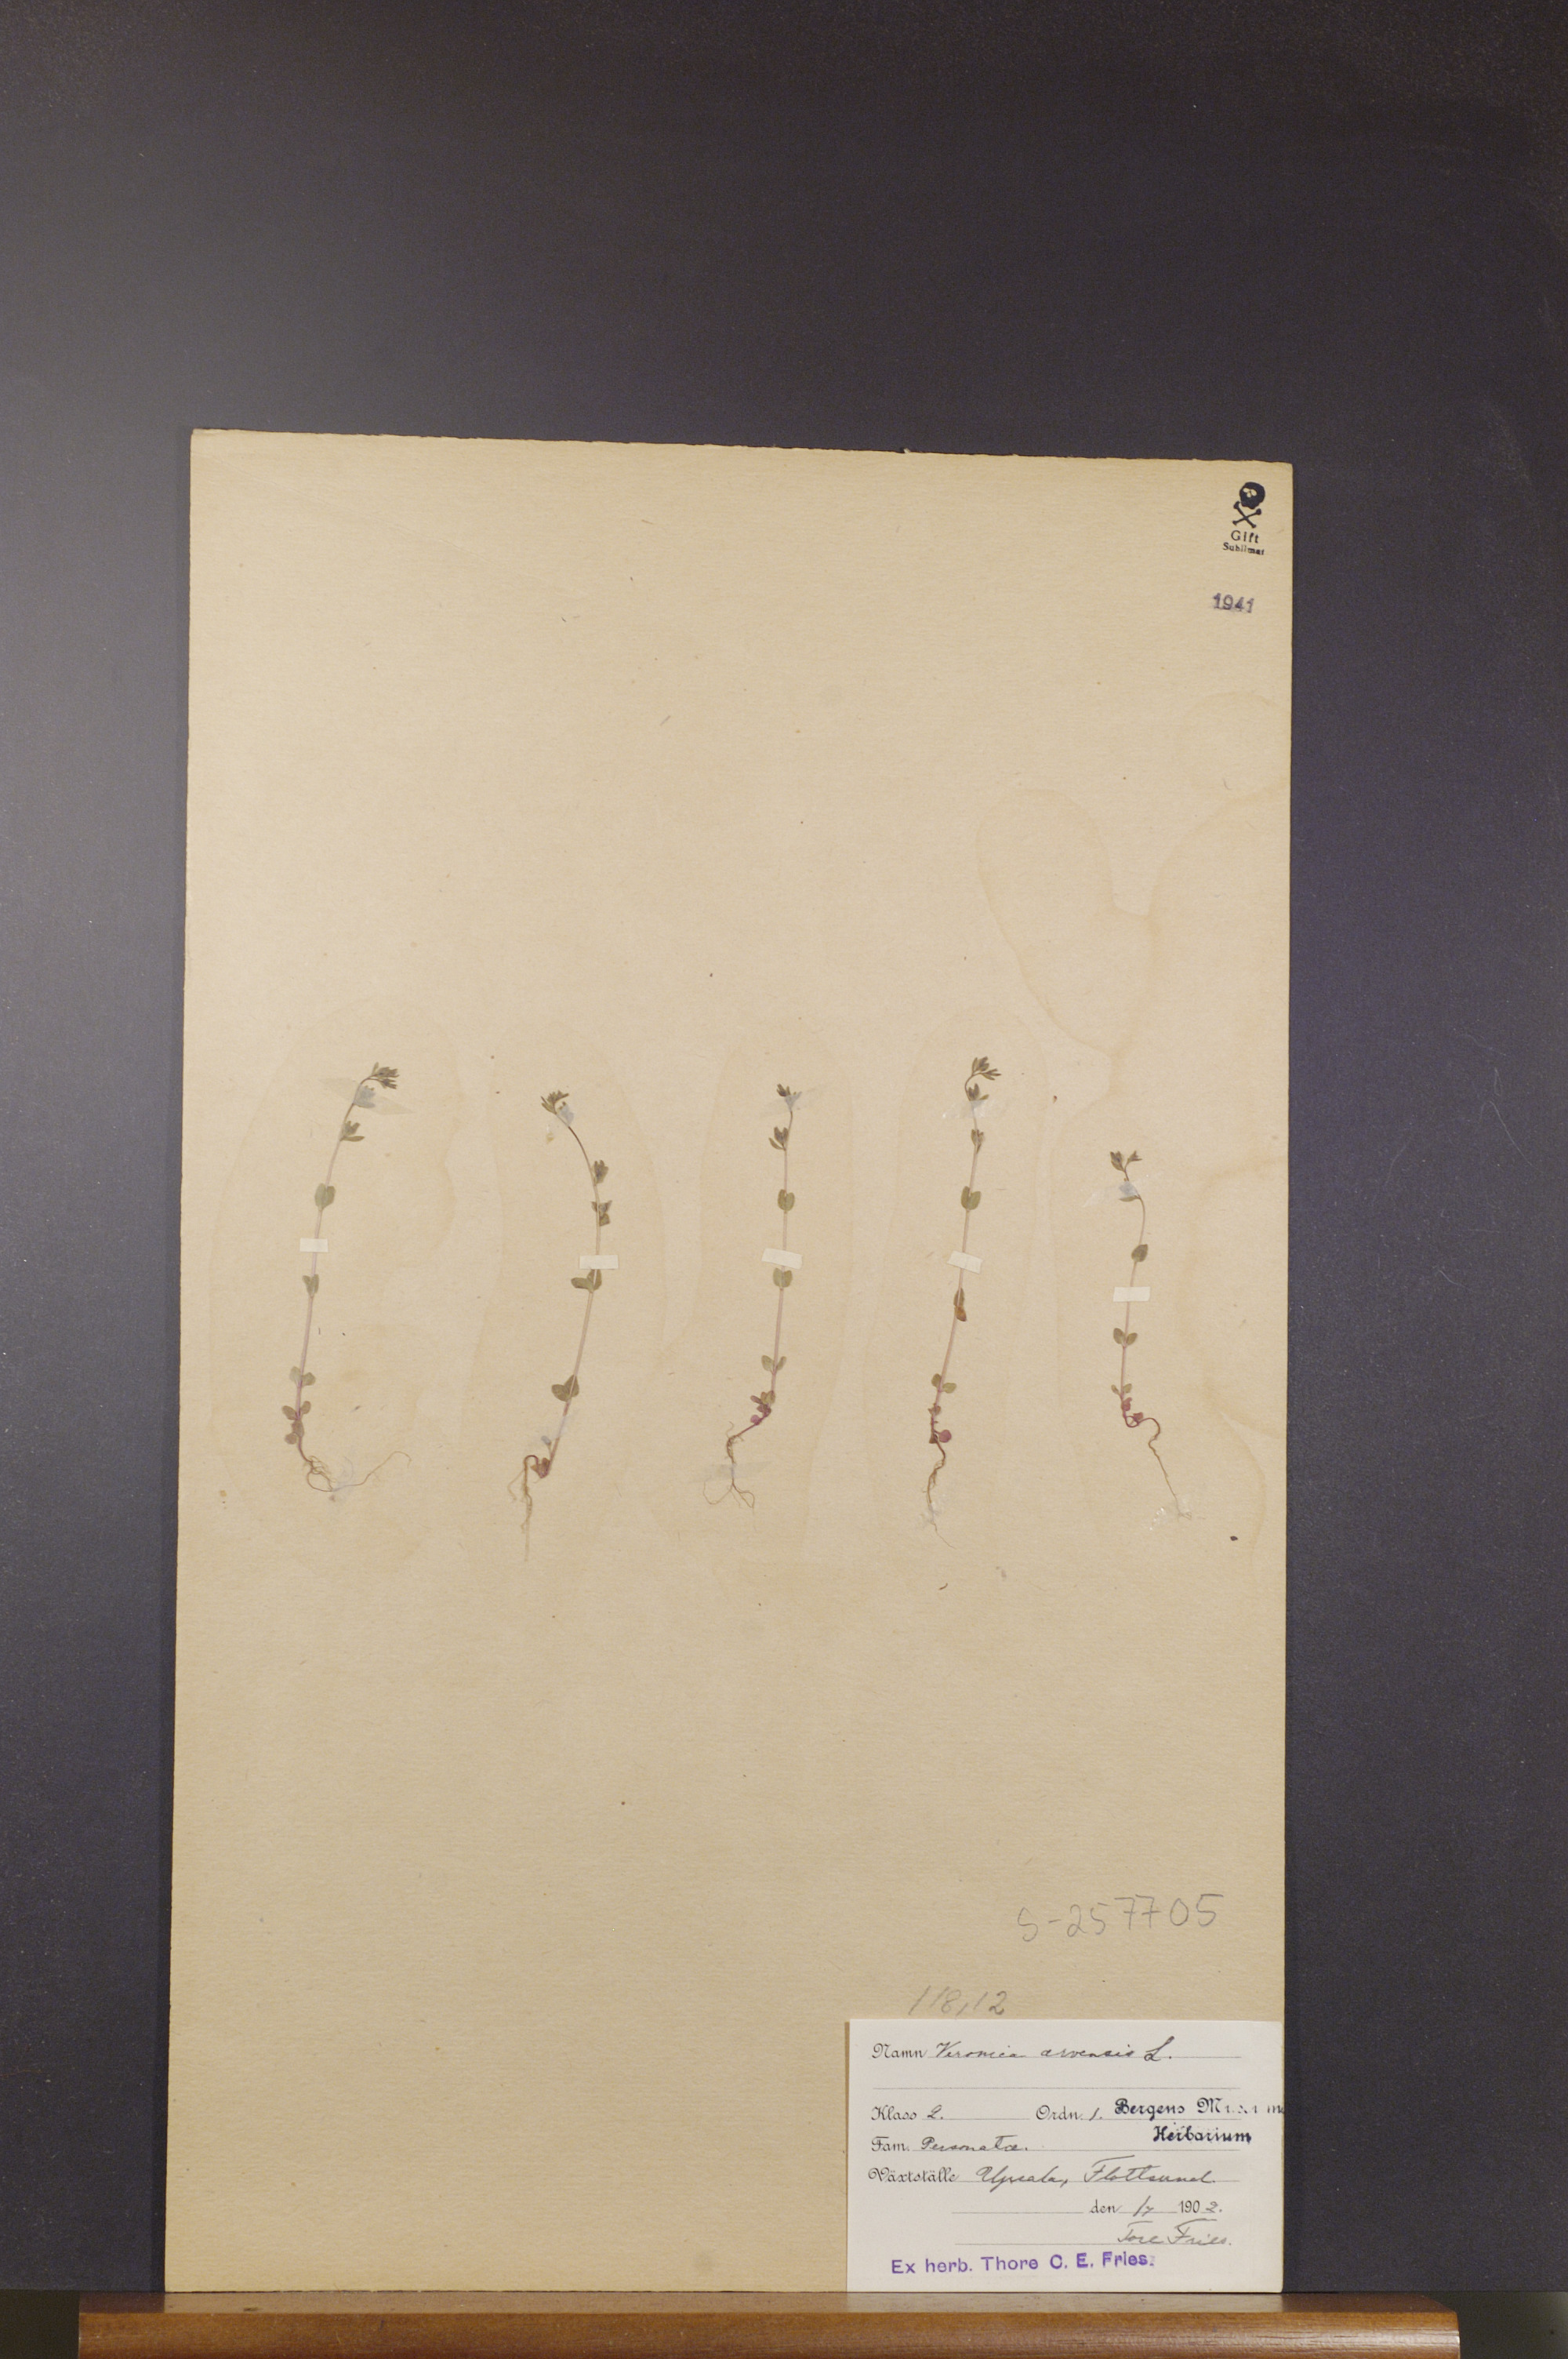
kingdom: Plantae
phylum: Tracheophyta
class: Magnoliopsida
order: Lamiales
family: Plantaginaceae
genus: Veronica
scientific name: Veronica arvensis
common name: Corn speedwell
